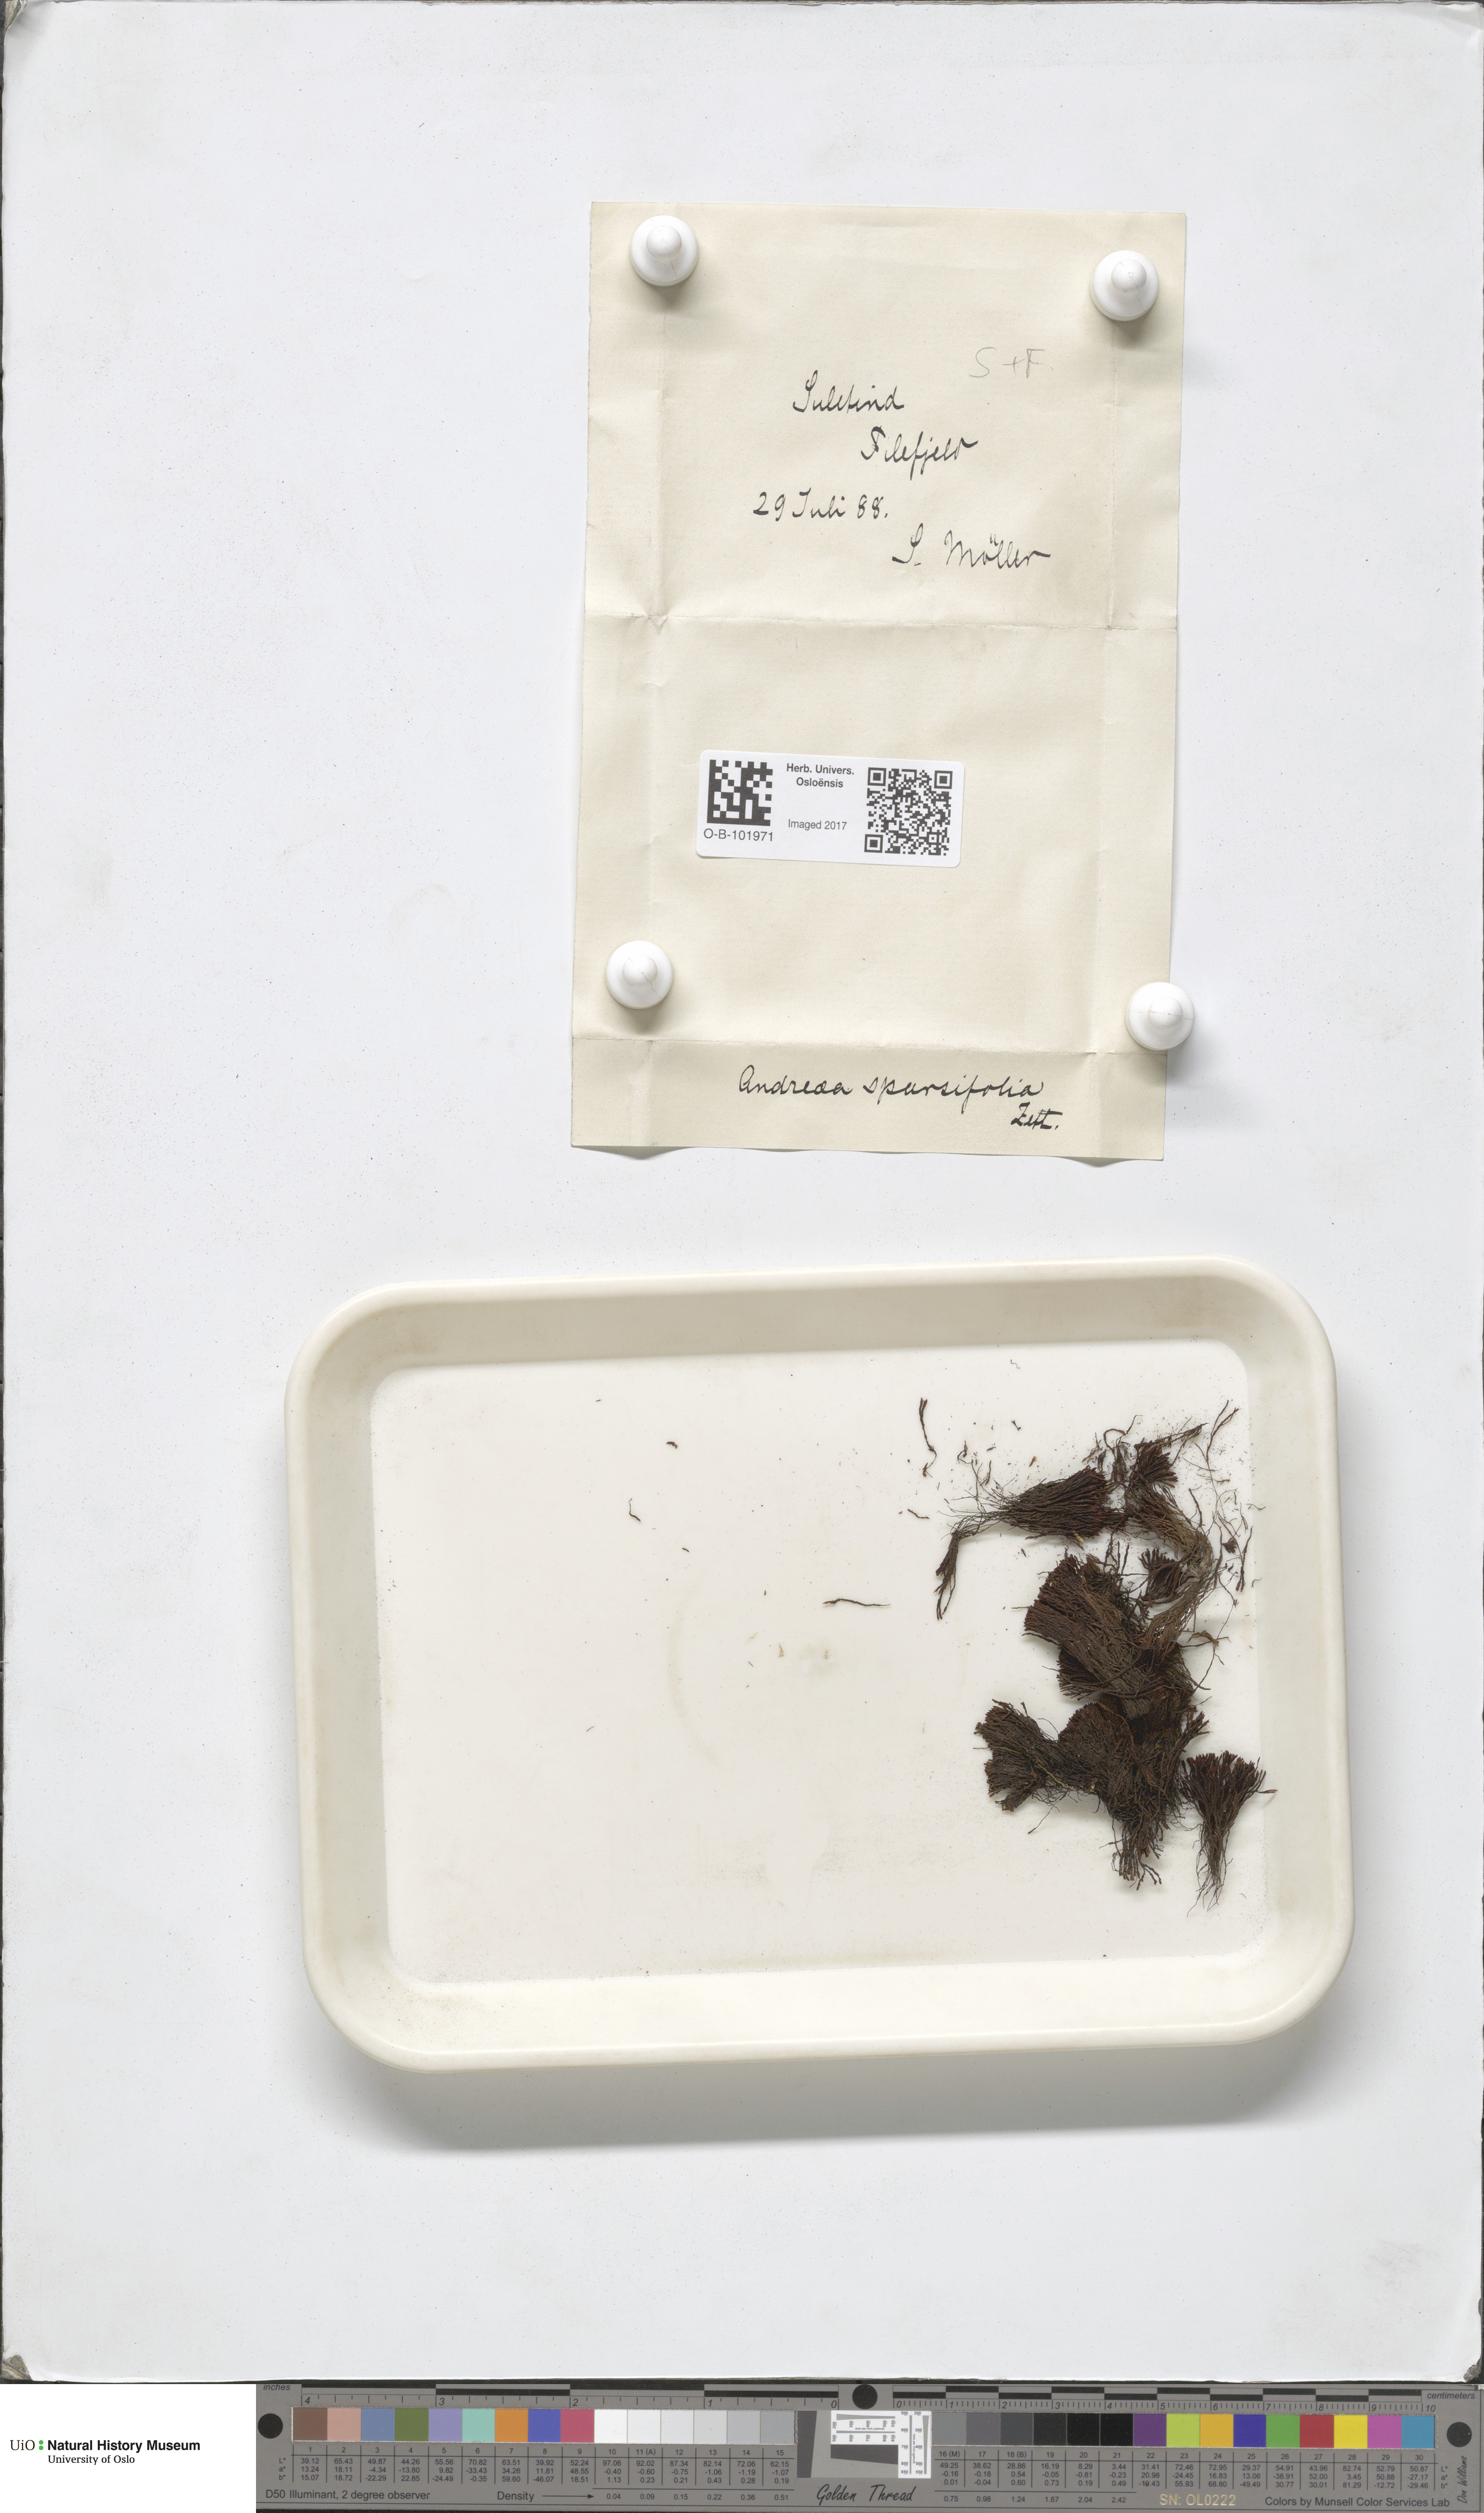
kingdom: Plantae
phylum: Bryophyta
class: Andreaeopsida
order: Andreaeales
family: Andreaeaceae
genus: Andreaea
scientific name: Andreaea rupestris
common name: Black rock moss
